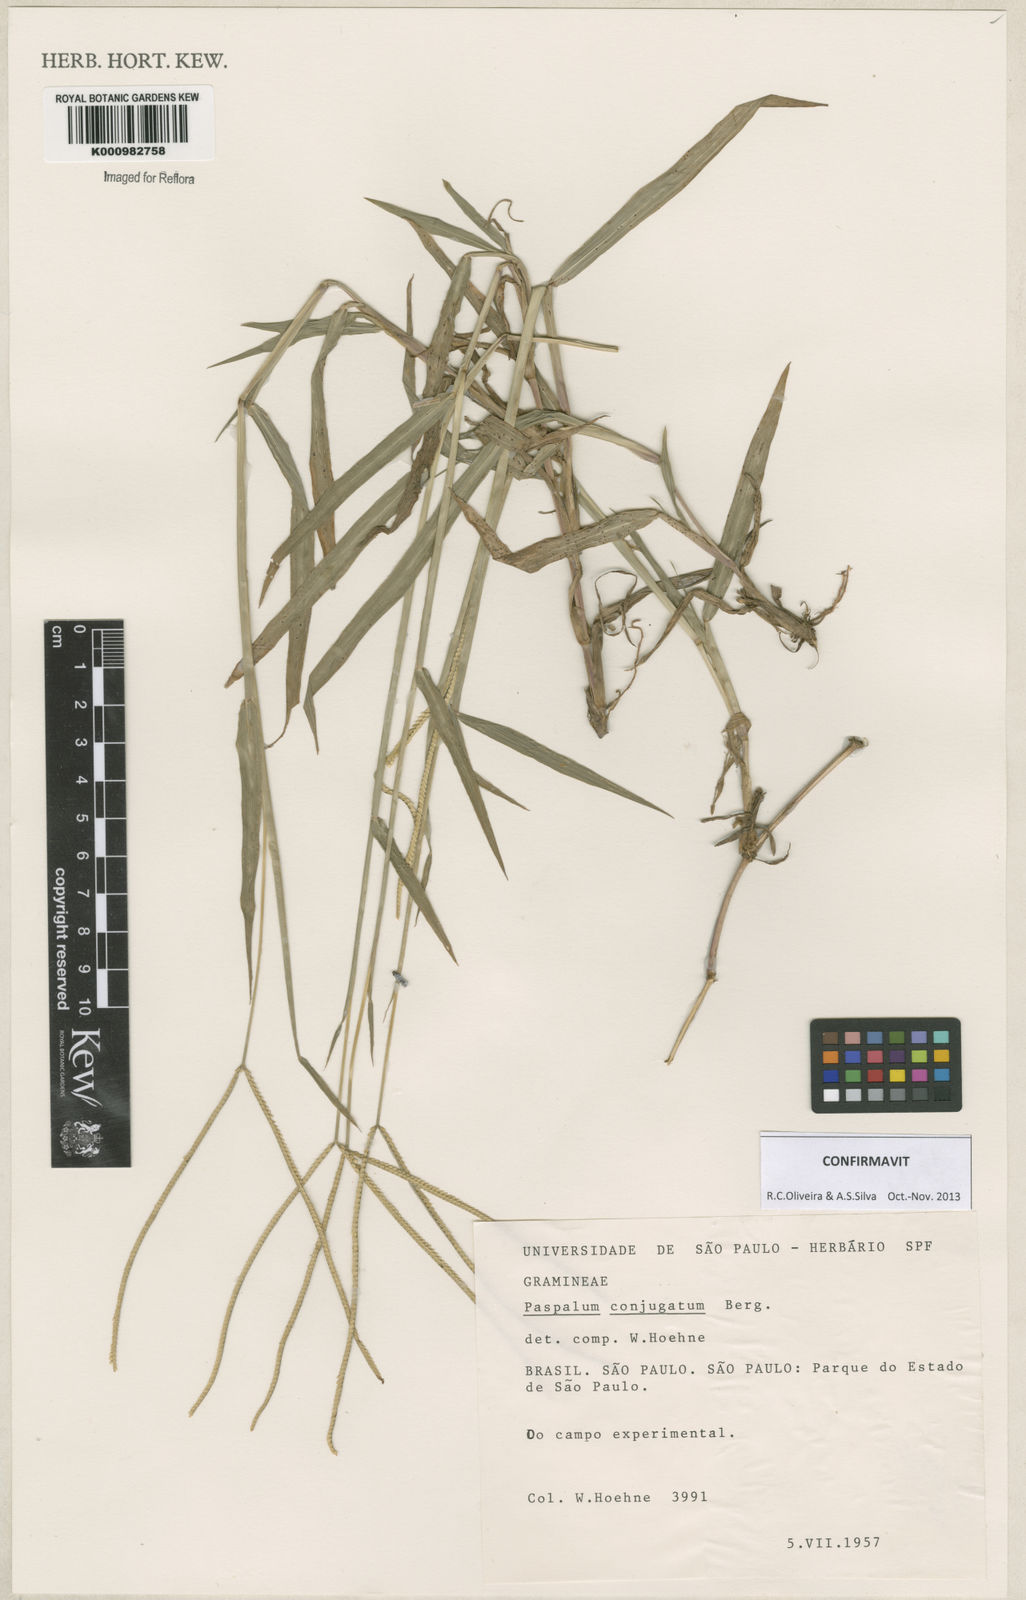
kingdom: Plantae
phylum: Tracheophyta
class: Liliopsida
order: Poales
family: Poaceae
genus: Paspalum
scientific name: Paspalum conjugatum
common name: Hilograss
